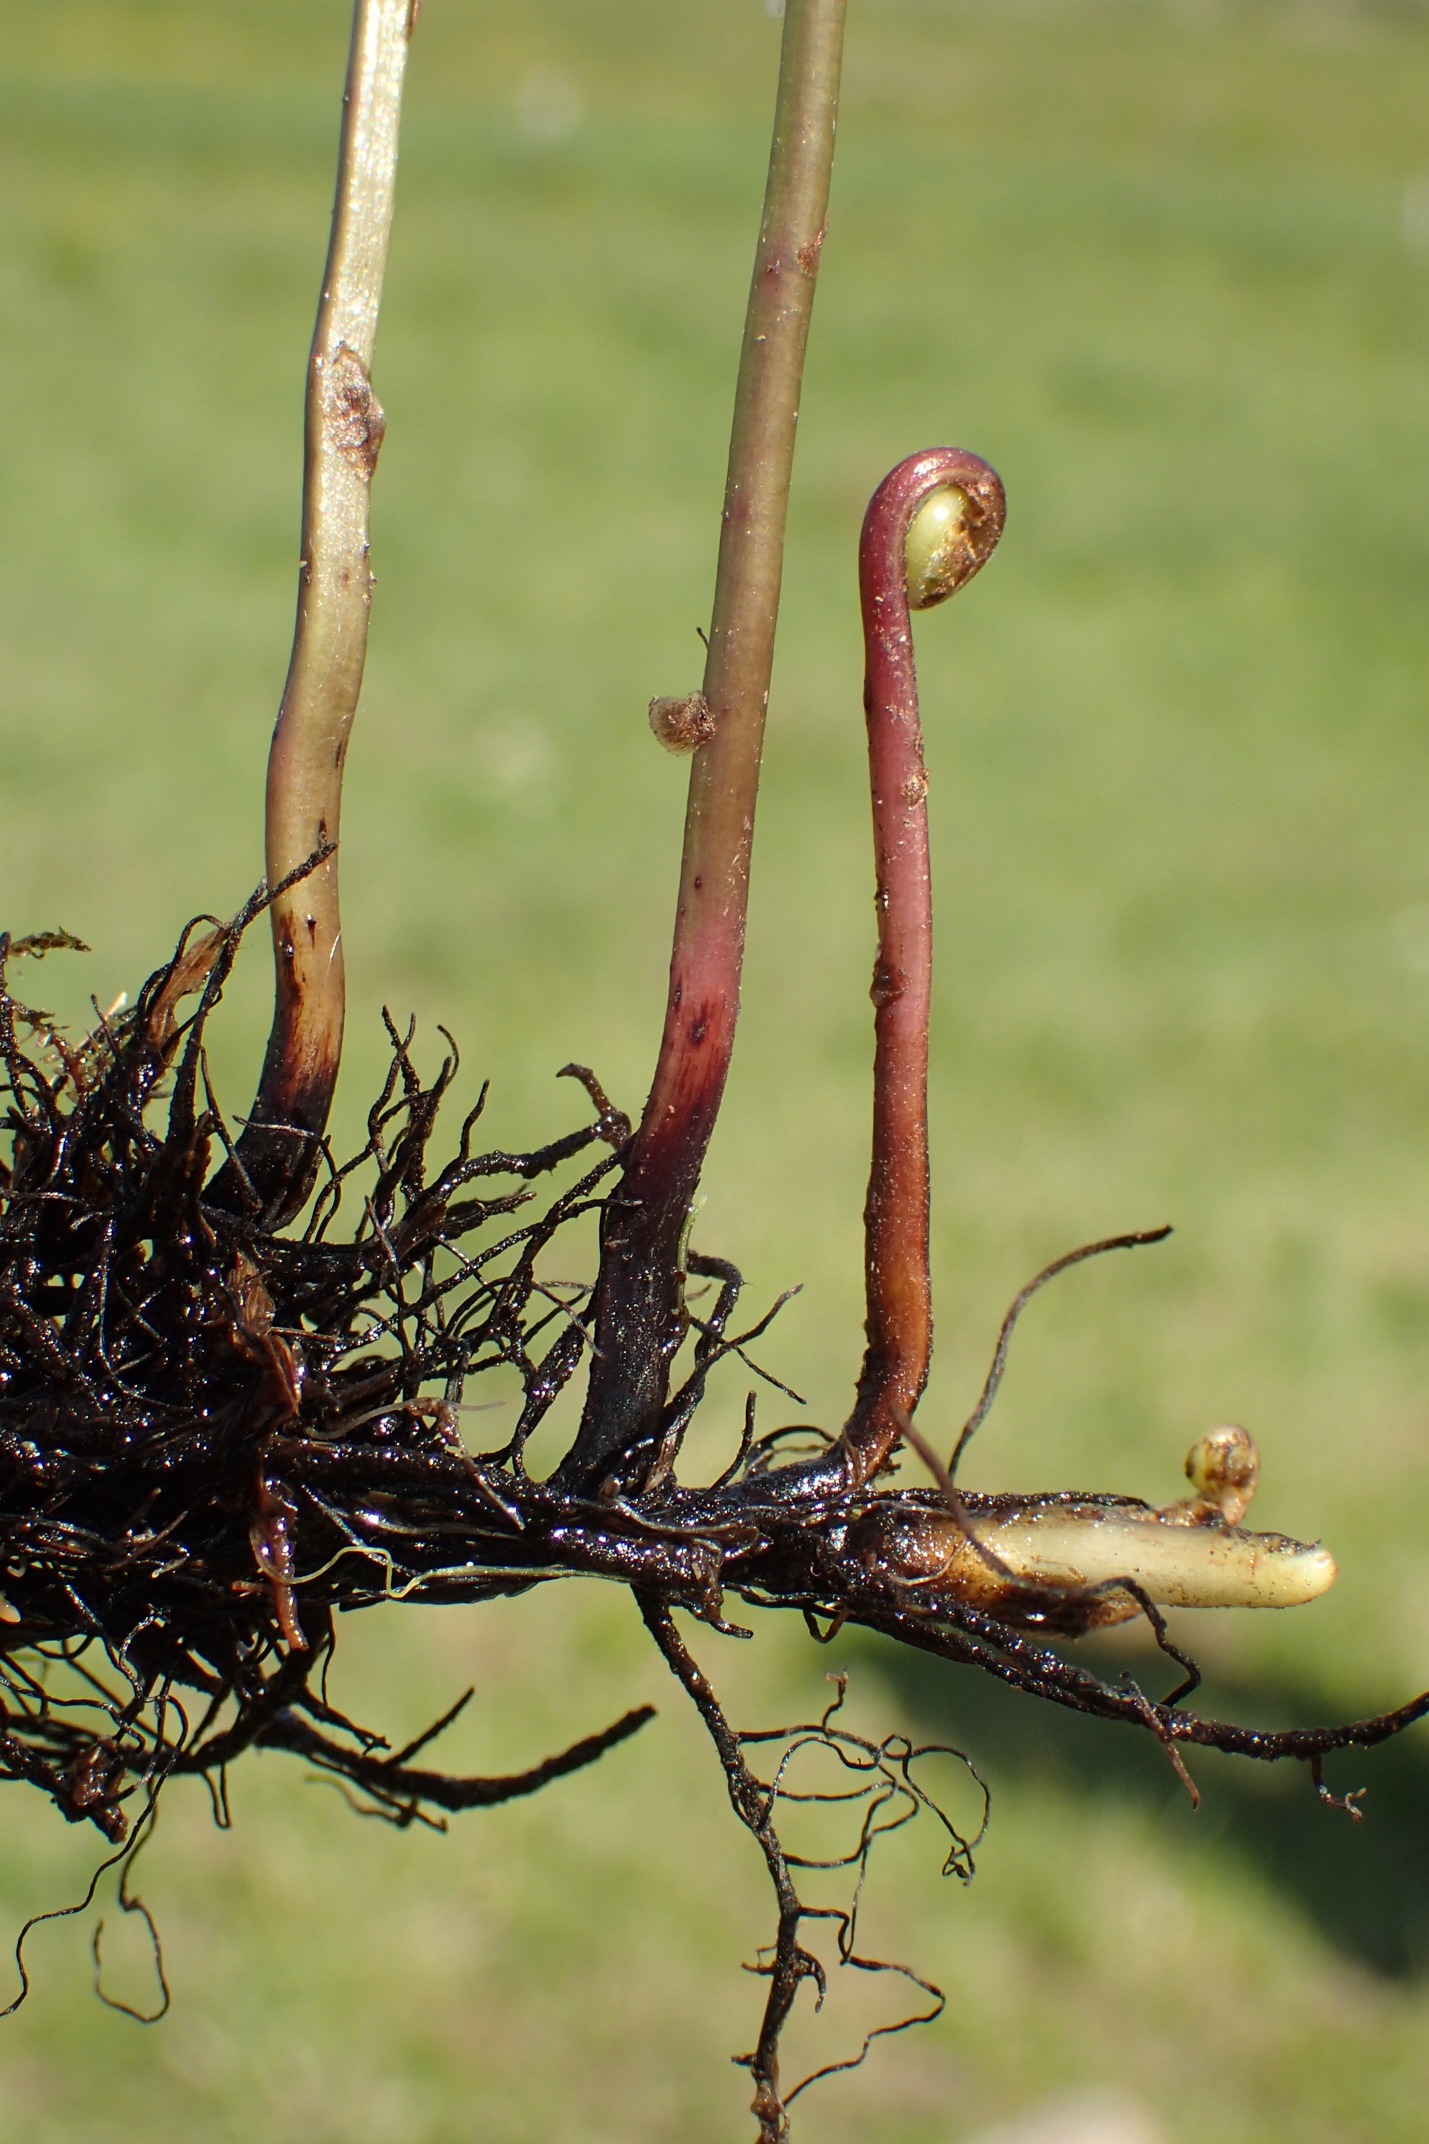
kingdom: Plantae
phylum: Tracheophyta
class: Polypodiopsida
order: Polypodiales
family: Thelypteridaceae
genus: Thelypteris
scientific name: Thelypteris palustris
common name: Kærmangeløv
